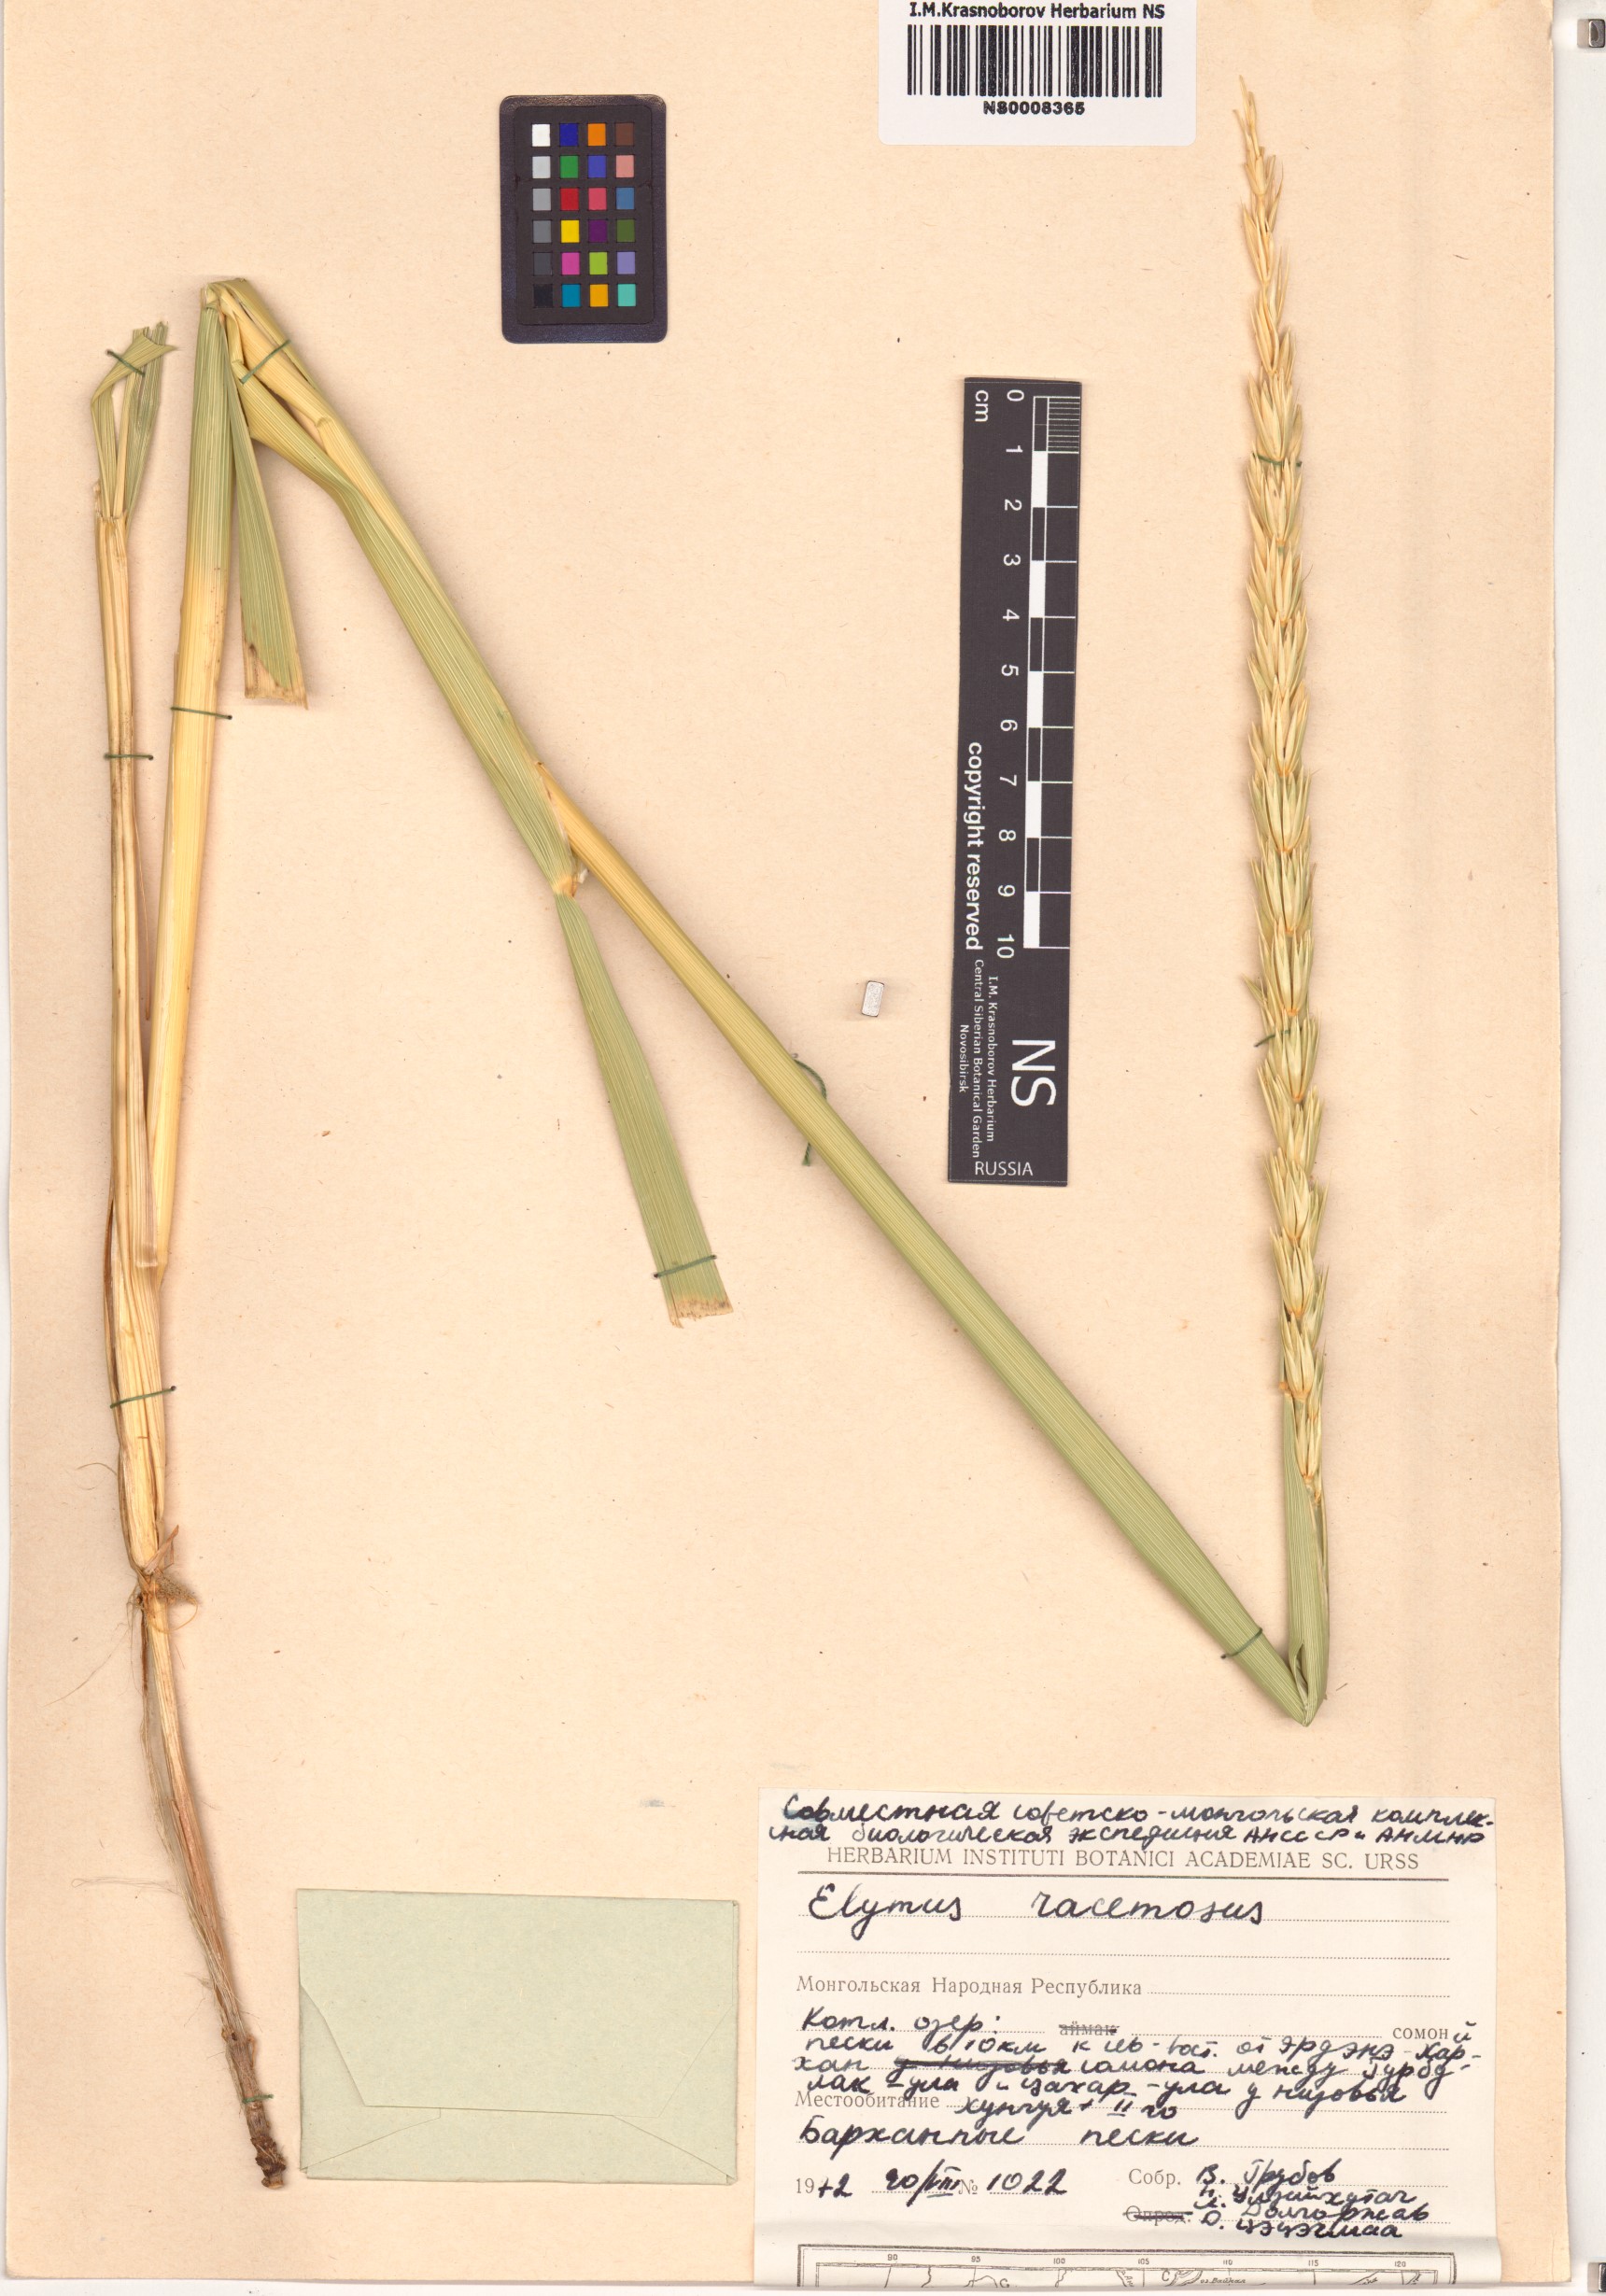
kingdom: Plantae
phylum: Tracheophyta
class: Liliopsida
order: Poales
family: Poaceae
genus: Leymus
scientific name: Leymus racemosus
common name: Mammoth wildrye
